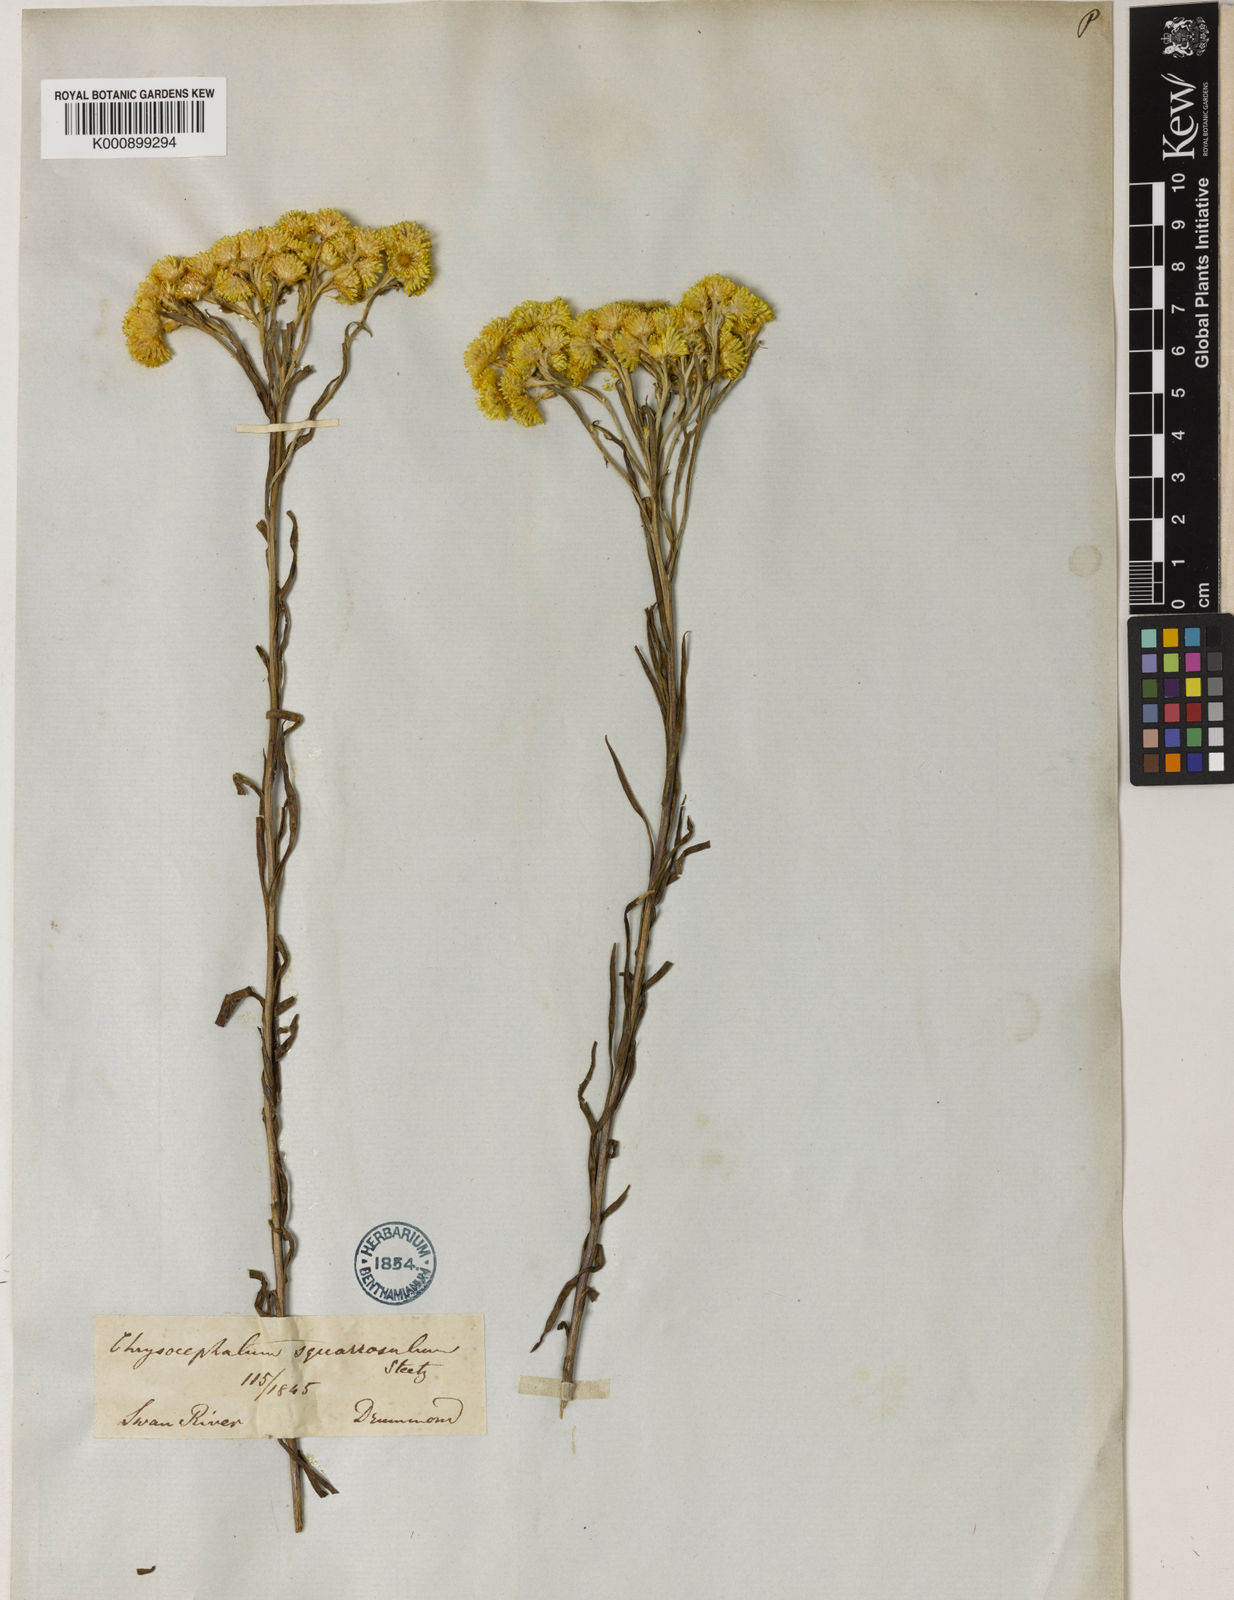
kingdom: Plantae
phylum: Tracheophyta
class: Magnoliopsida
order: Asterales
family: Asteraceae
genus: Chrysocephalum
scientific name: Chrysocephalum apiculatum
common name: Common everlasting
